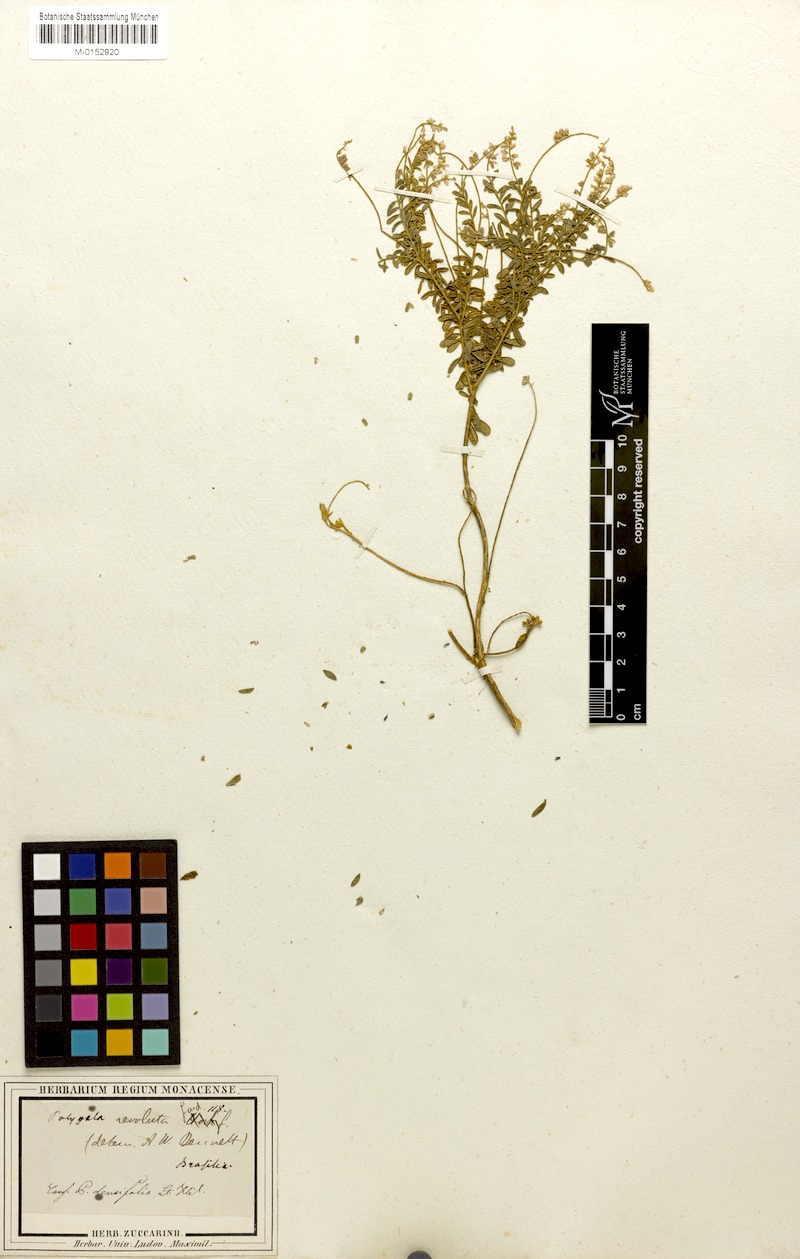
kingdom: Plantae
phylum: Tracheophyta
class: Magnoliopsida
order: Fabales
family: Polygalaceae
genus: Polygala
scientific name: Polygala trifurcata
